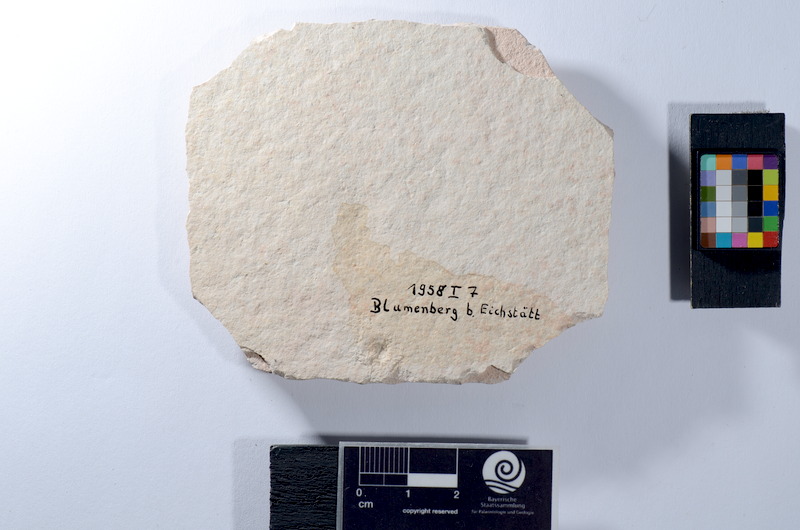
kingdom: Animalia
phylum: Chordata
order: Amiiformes
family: Ionoscopidae
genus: Ionoscopus
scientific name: Ionoscopus
